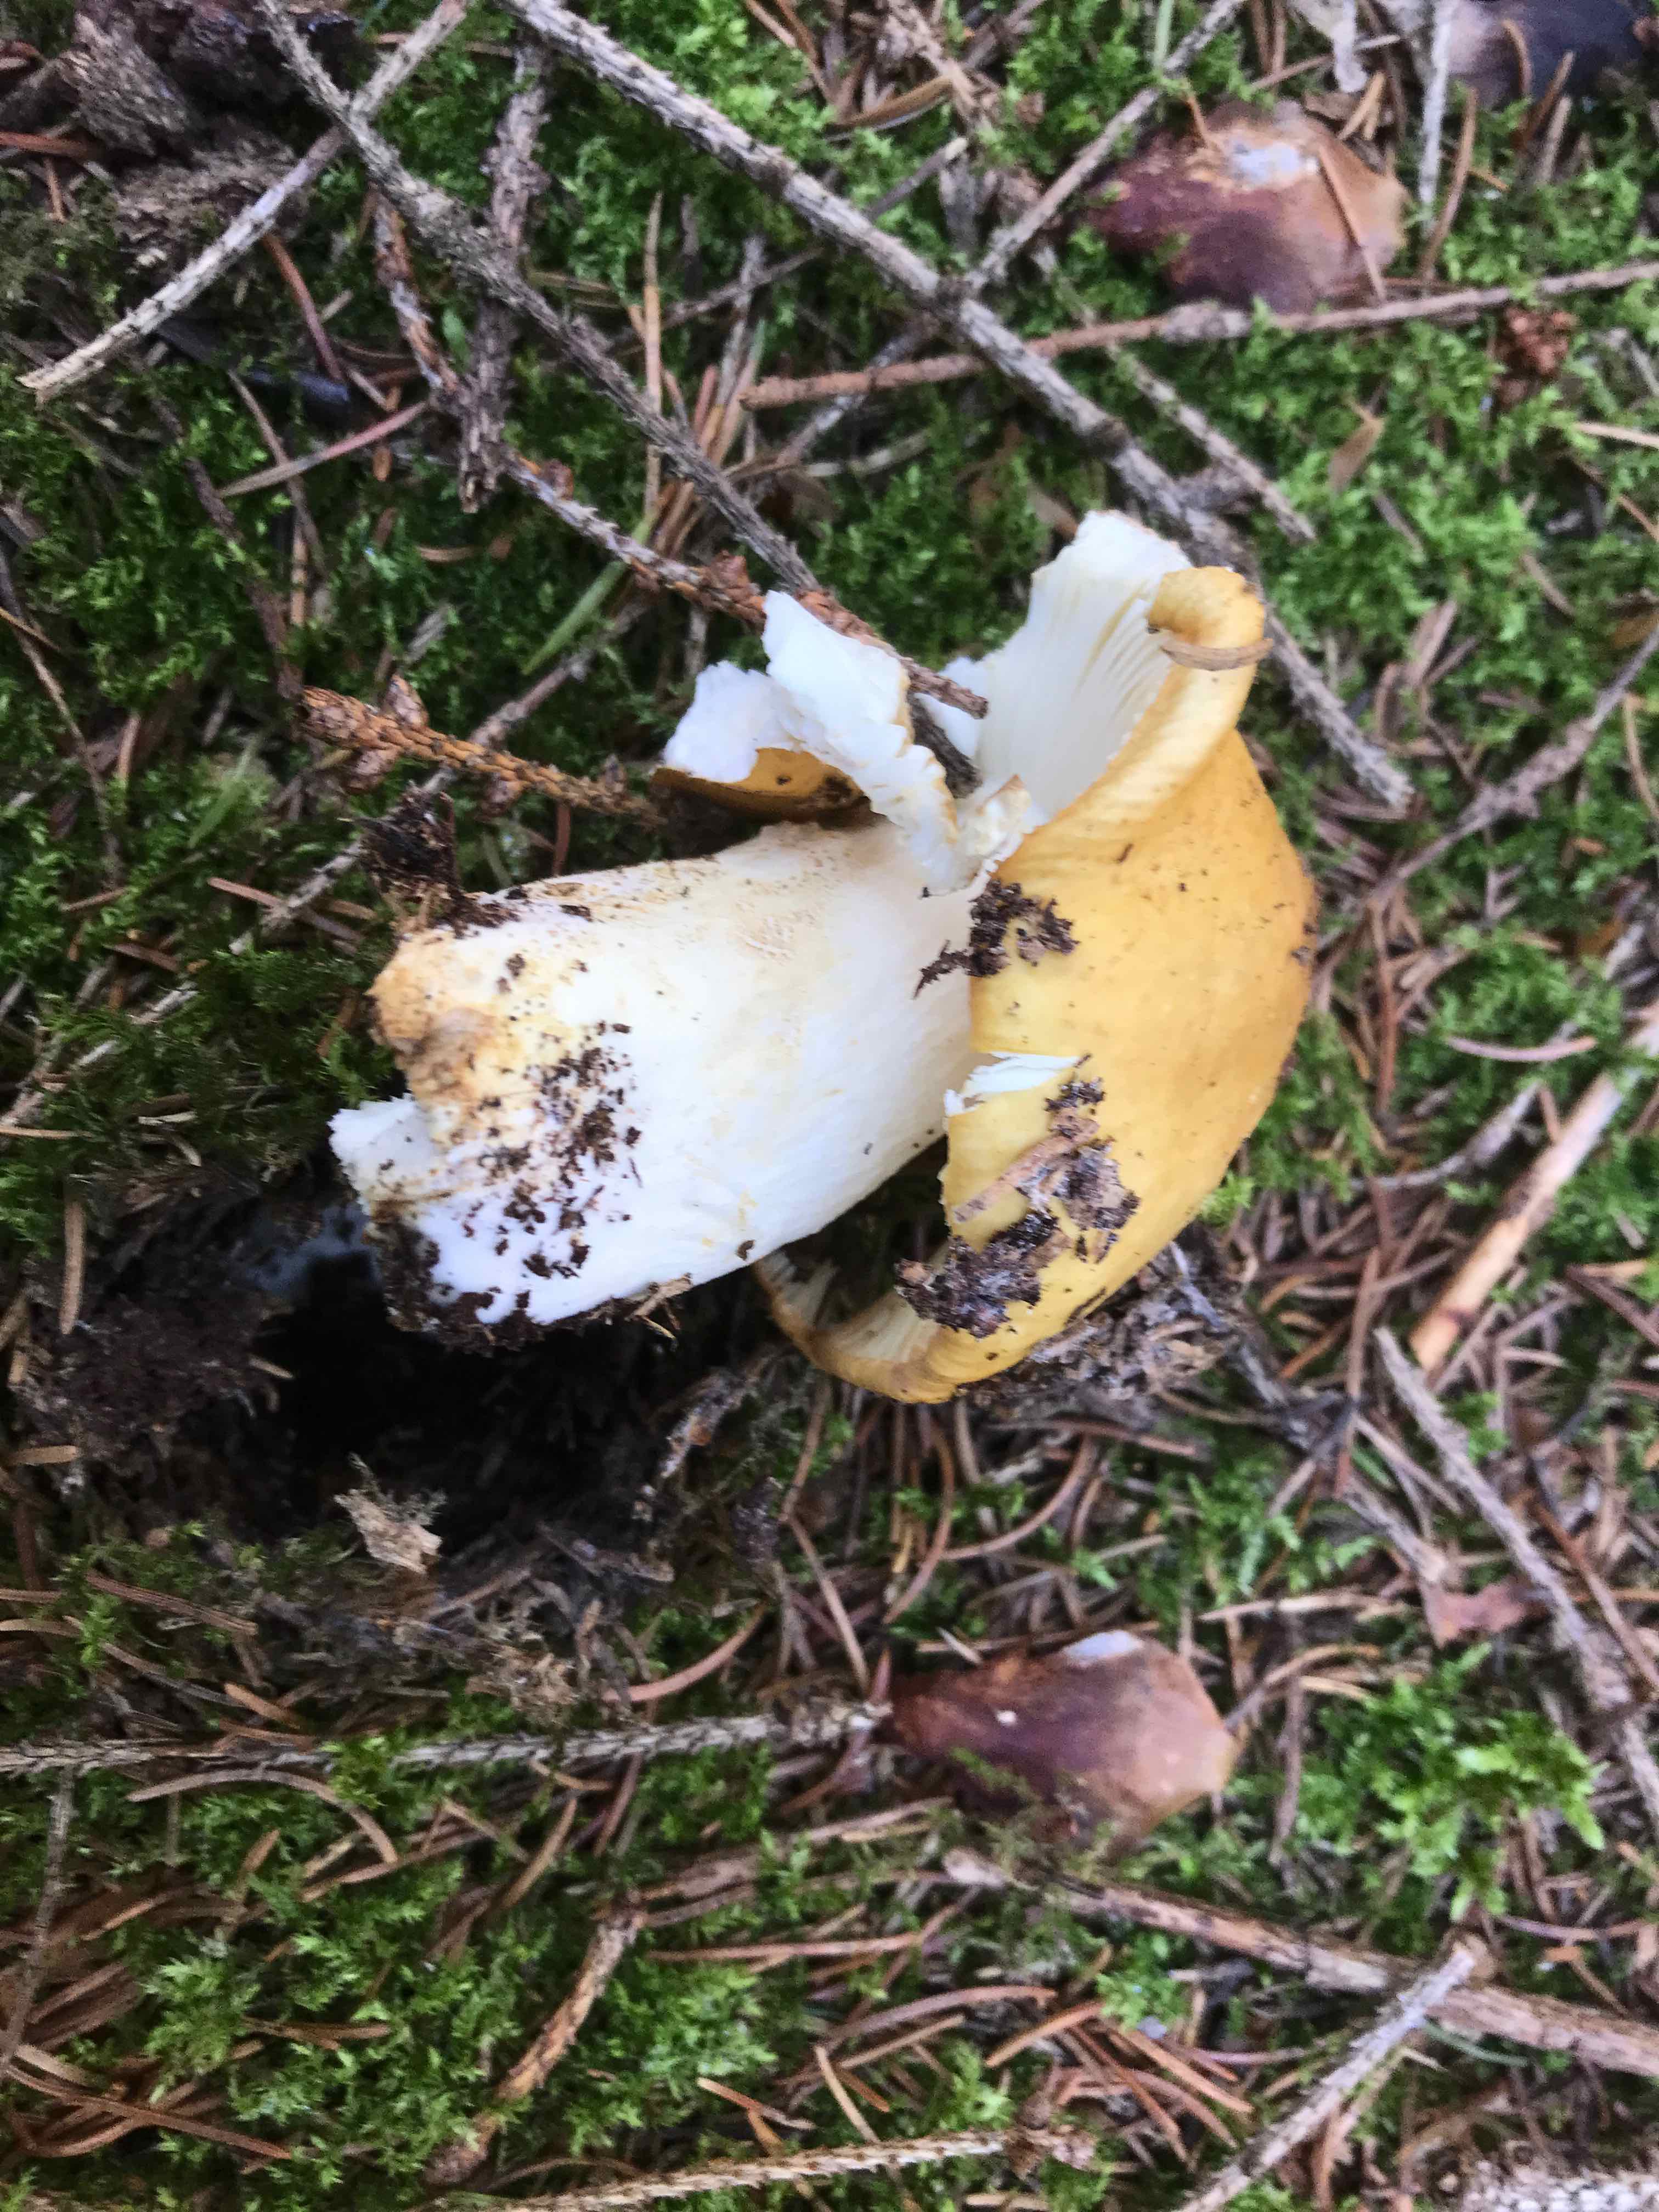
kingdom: Fungi
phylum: Basidiomycota
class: Agaricomycetes
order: Russulales
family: Russulaceae
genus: Russula
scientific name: Russula ochroleuca
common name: okkergul skørhat
